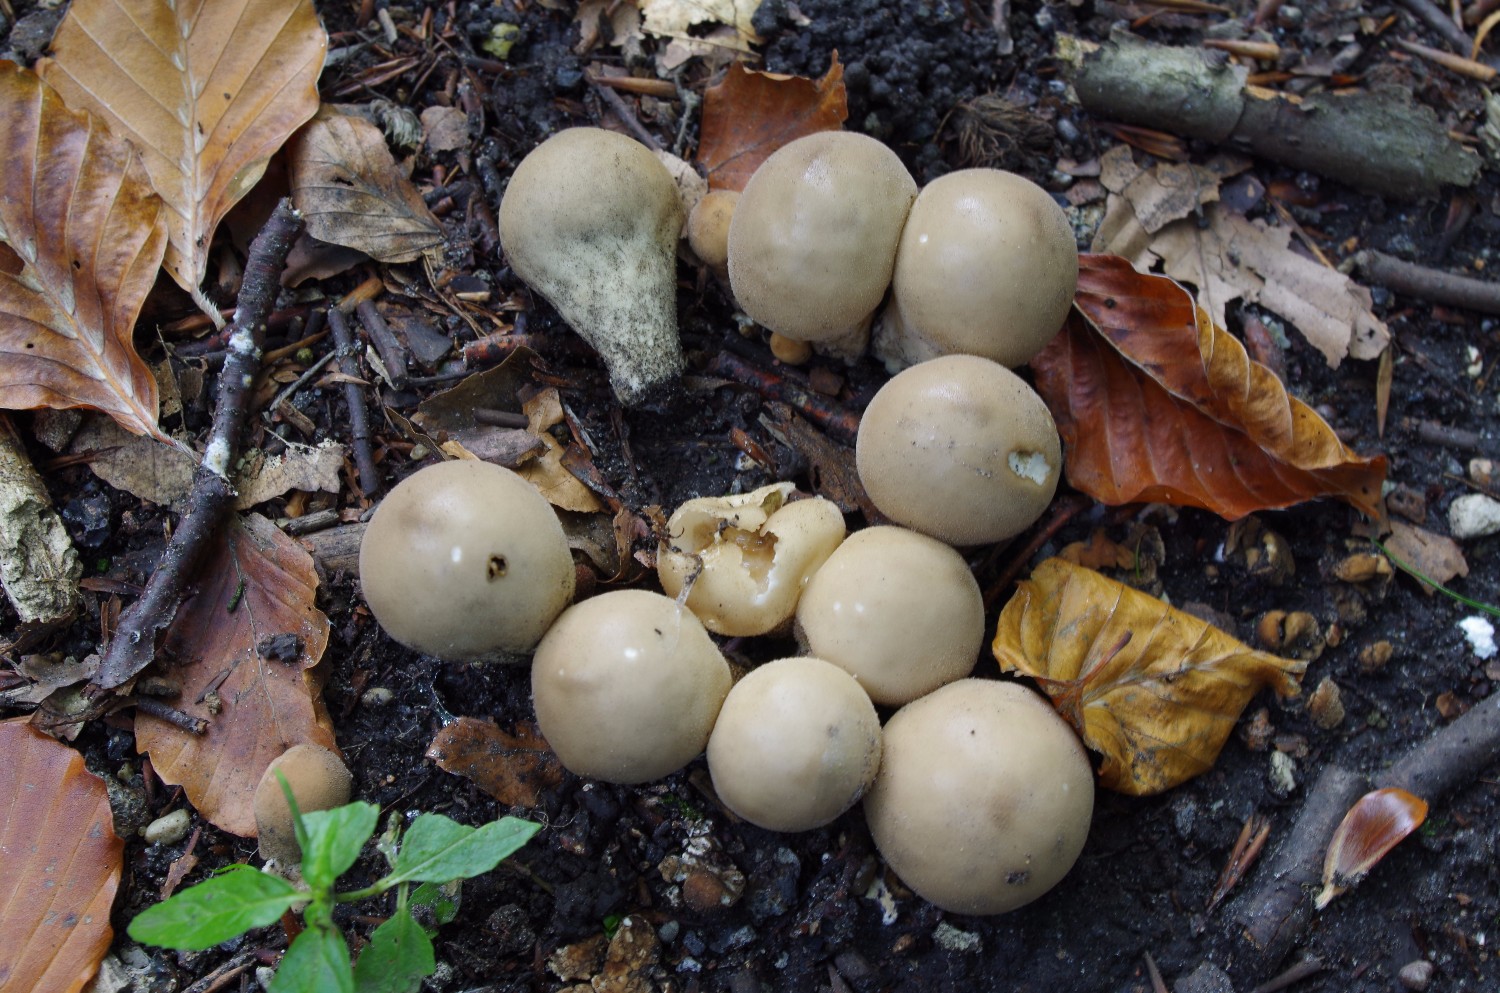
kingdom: Fungi
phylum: Basidiomycota
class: Agaricomycetes
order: Agaricales
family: Lycoperdaceae
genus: Apioperdon
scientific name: Apioperdon pyriforme
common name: pære-støvbold
